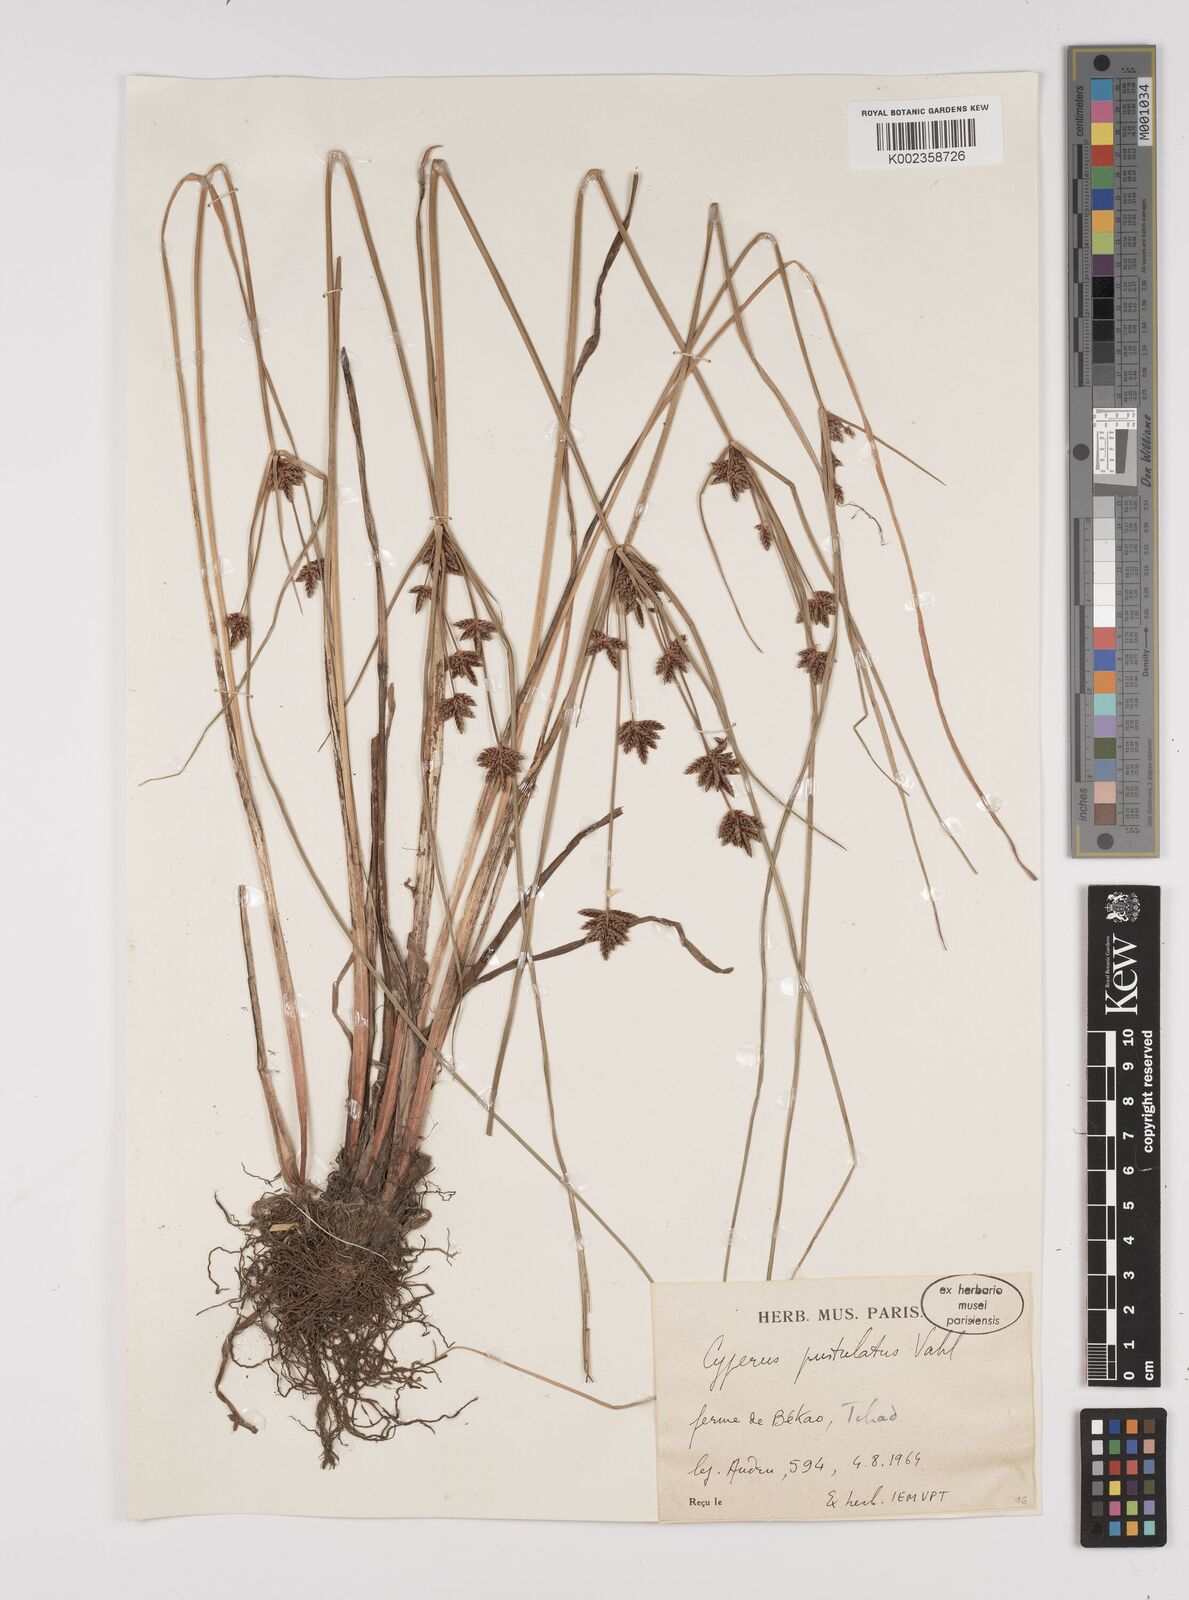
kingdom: Plantae
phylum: Tracheophyta
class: Liliopsida
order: Poales
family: Cyperaceae
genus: Cyperus
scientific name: Cyperus pustulatus
